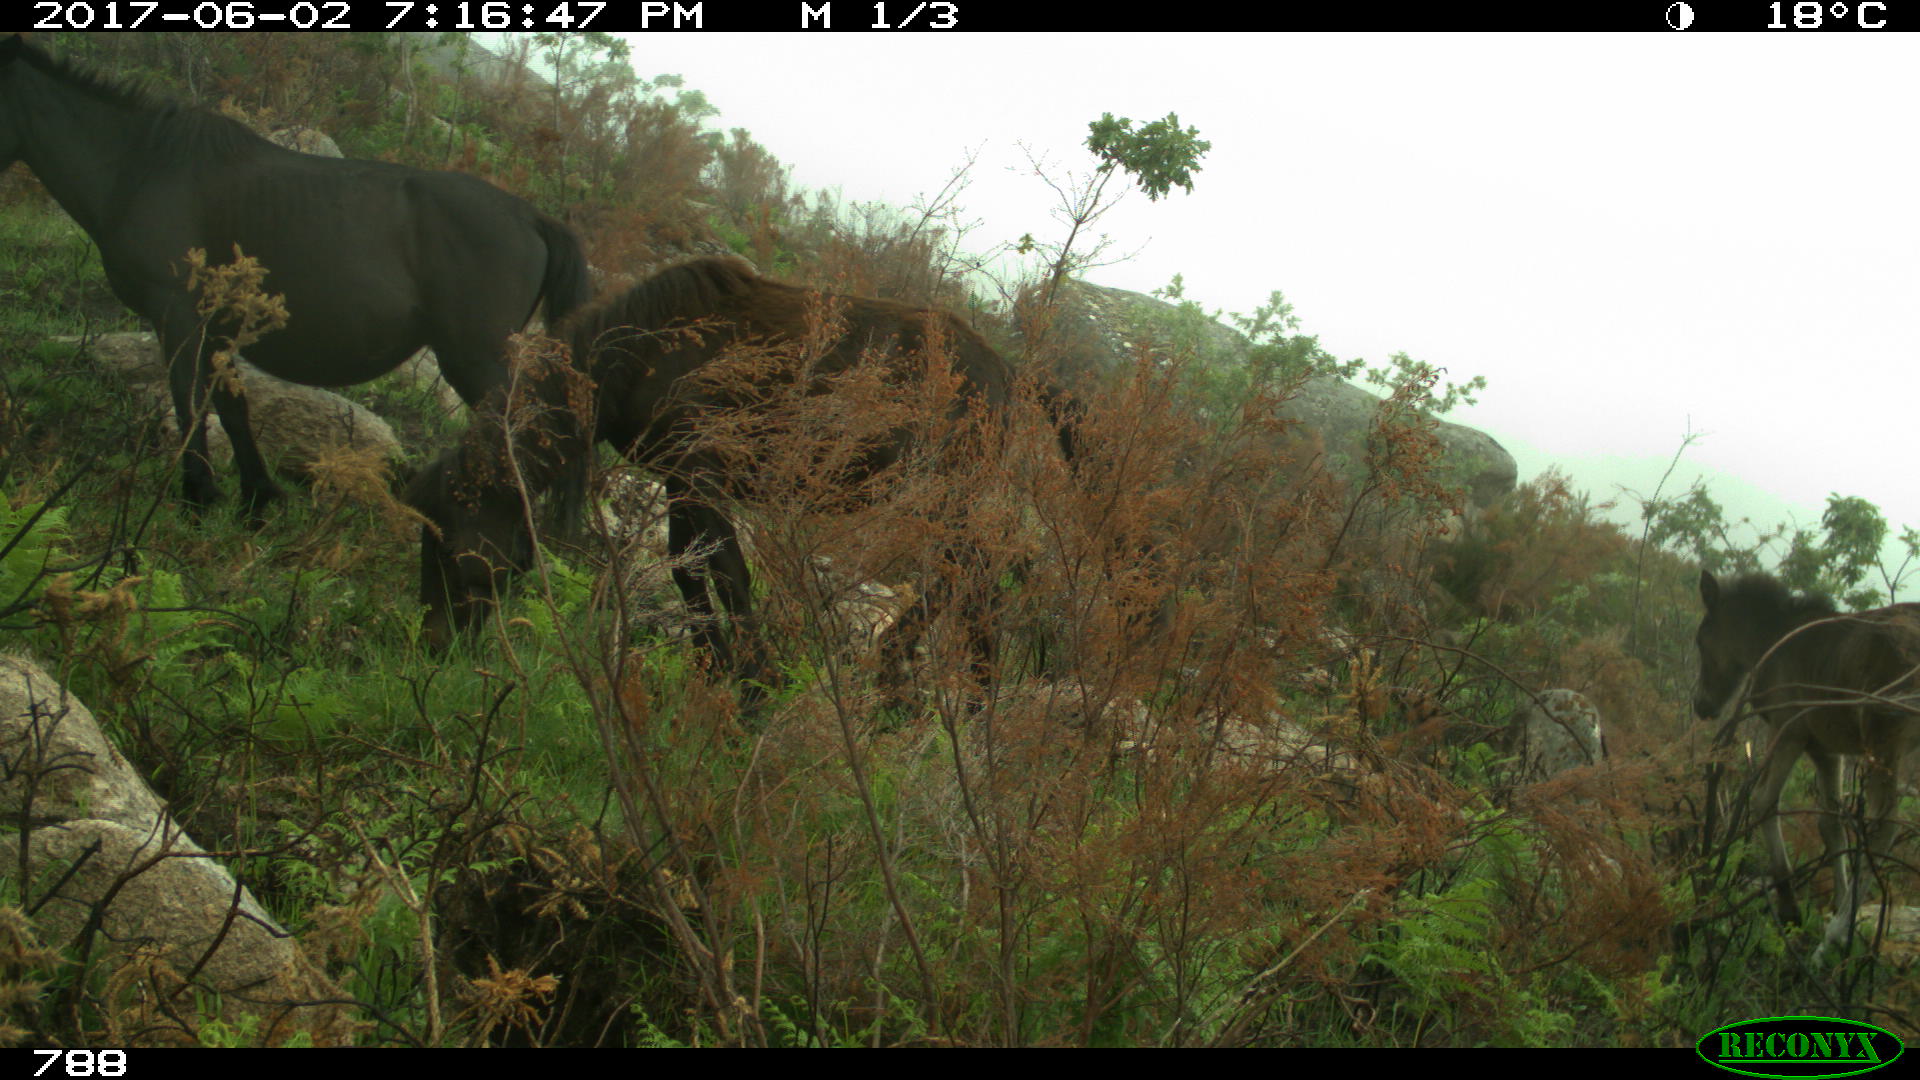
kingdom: Animalia
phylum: Chordata
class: Mammalia
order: Perissodactyla
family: Equidae
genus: Equus
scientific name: Equus caballus
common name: Horse
